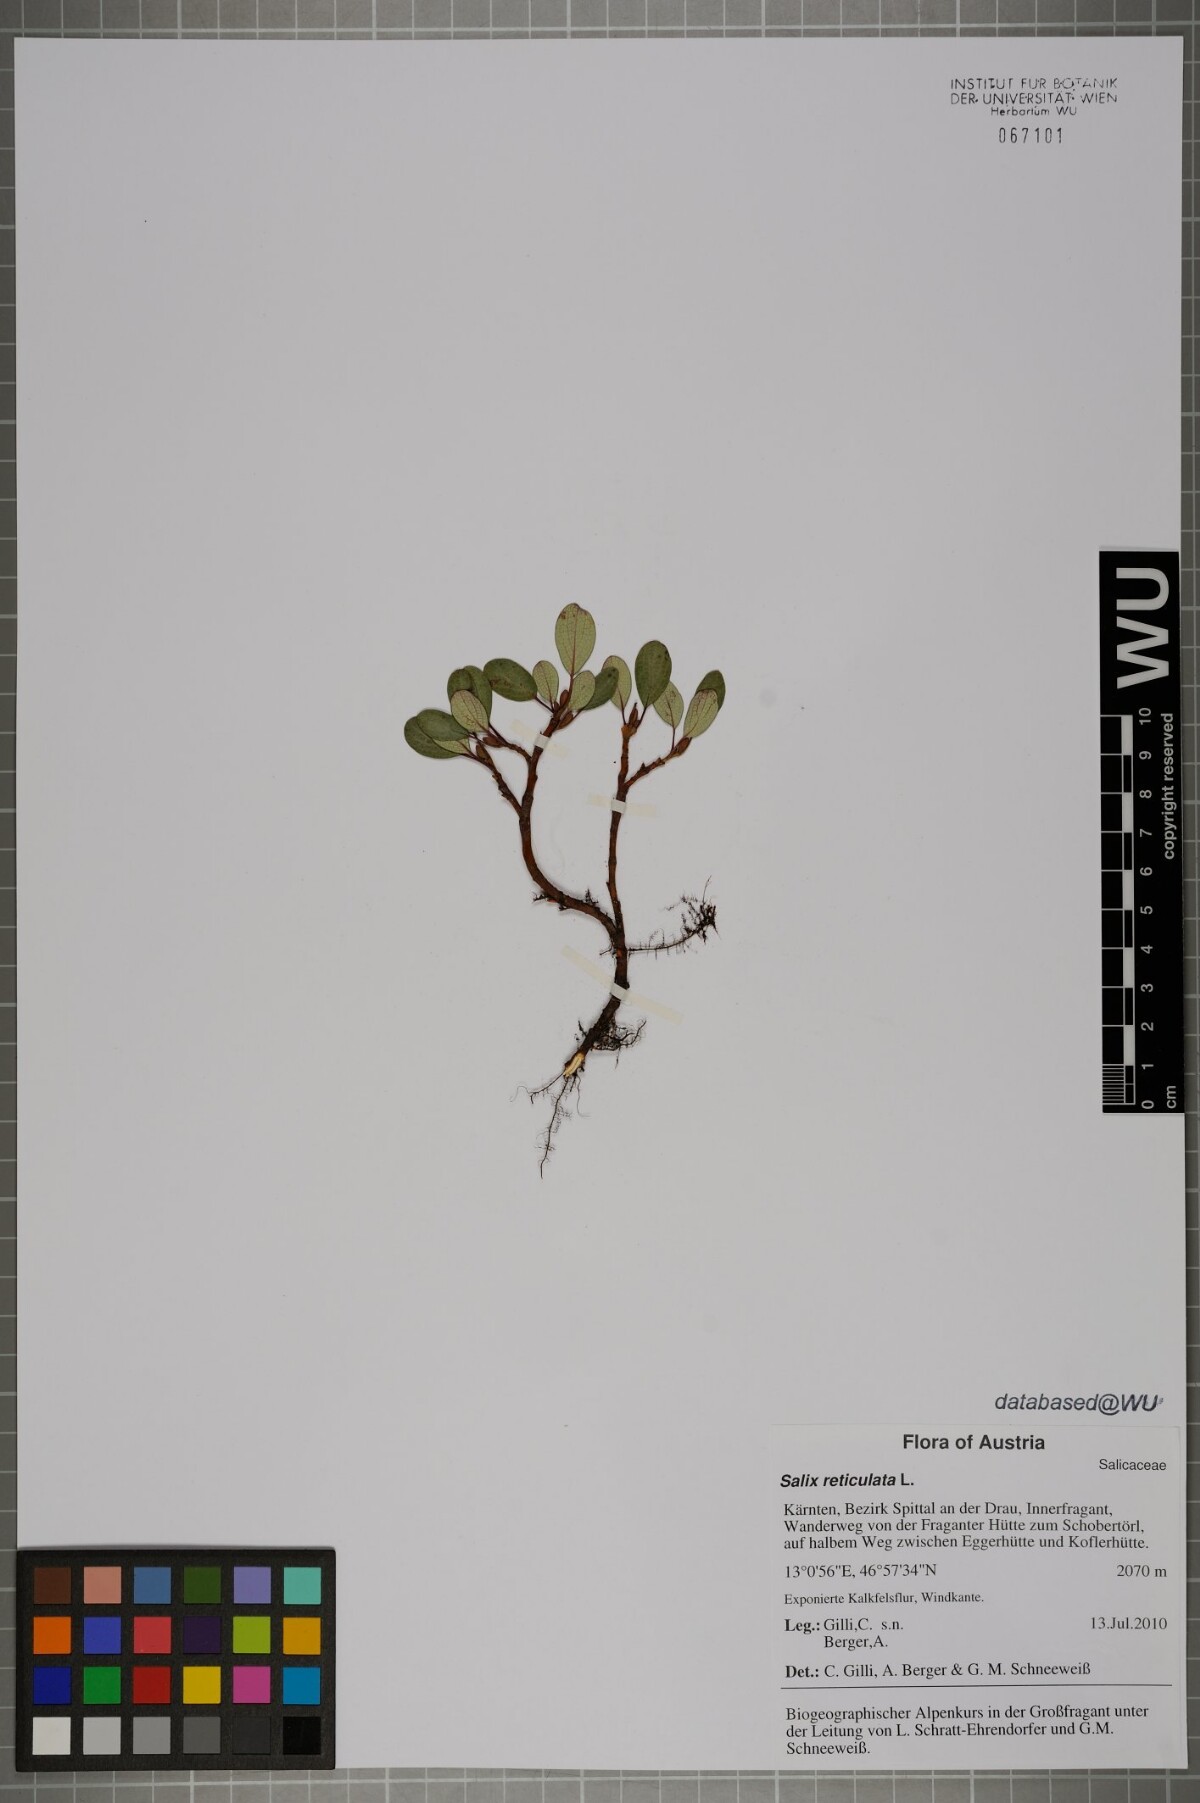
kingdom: Plantae
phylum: Tracheophyta
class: Magnoliopsida
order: Malpighiales
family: Salicaceae
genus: Salix
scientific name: Salix reticulata
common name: Net-leaved willow
